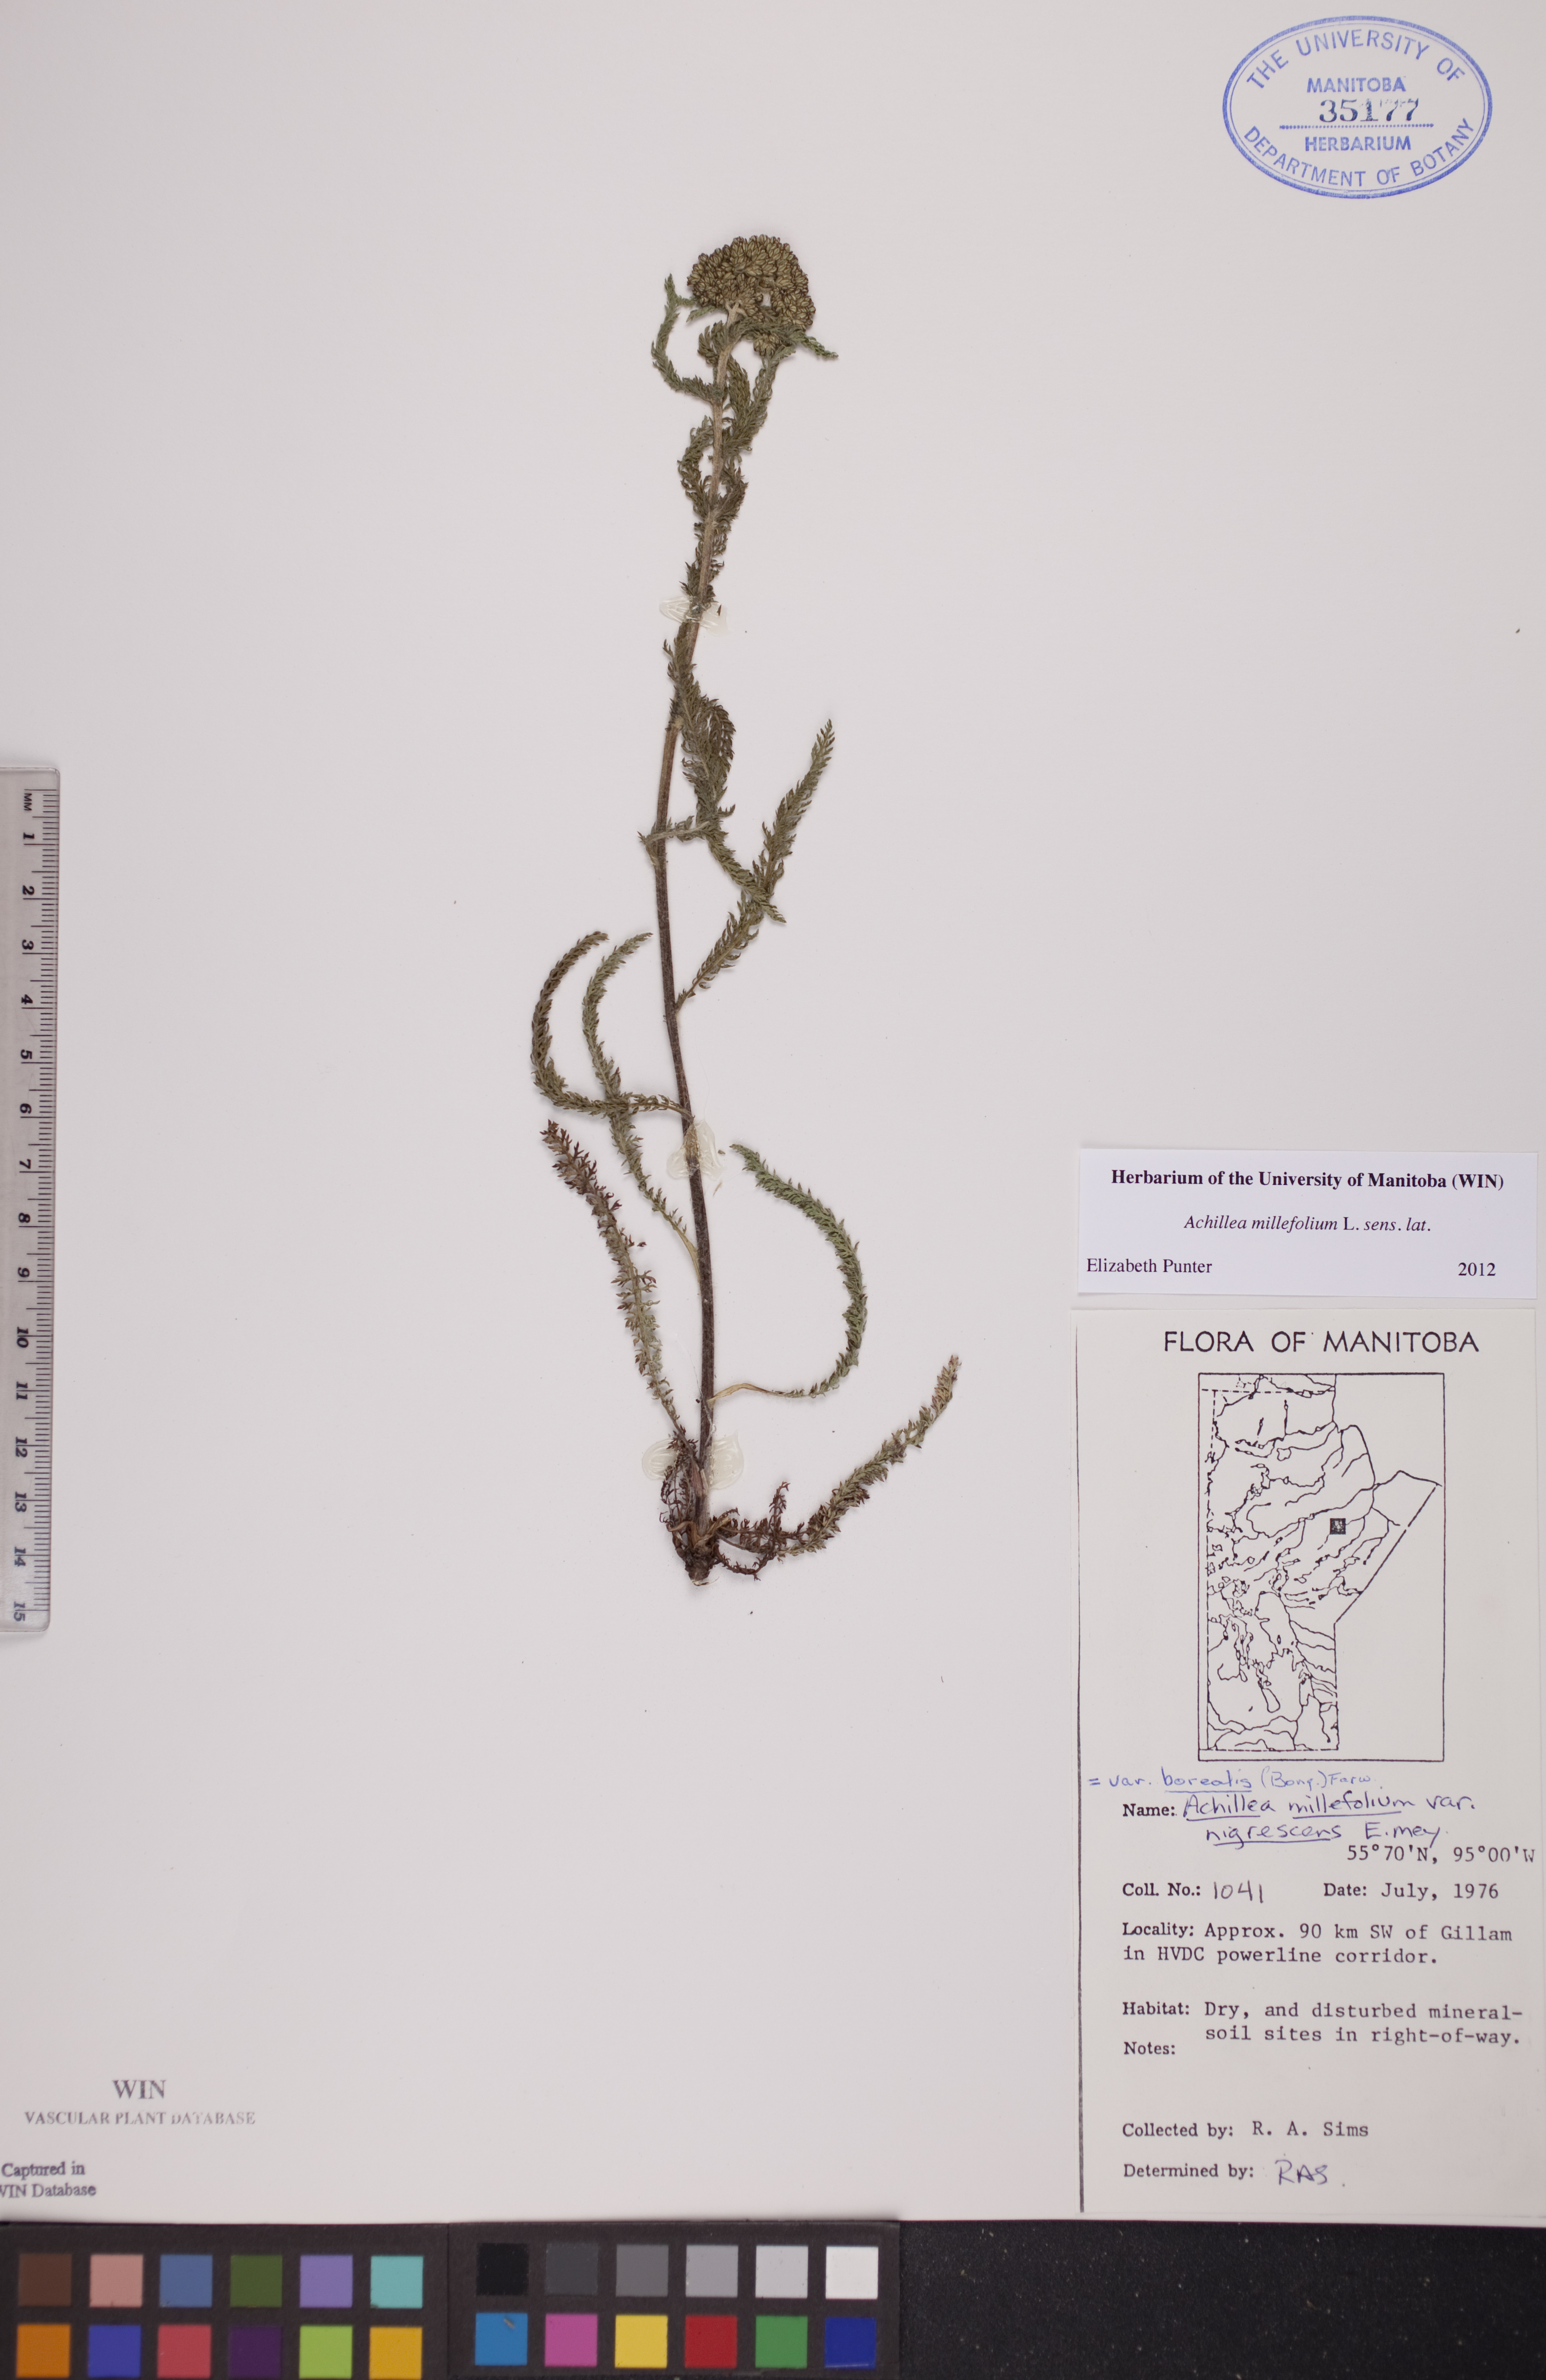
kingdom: Plantae
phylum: Tracheophyta
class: Magnoliopsida
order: Asterales
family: Asteraceae
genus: Achillea
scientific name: Achillea millefolium
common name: Yarrow
